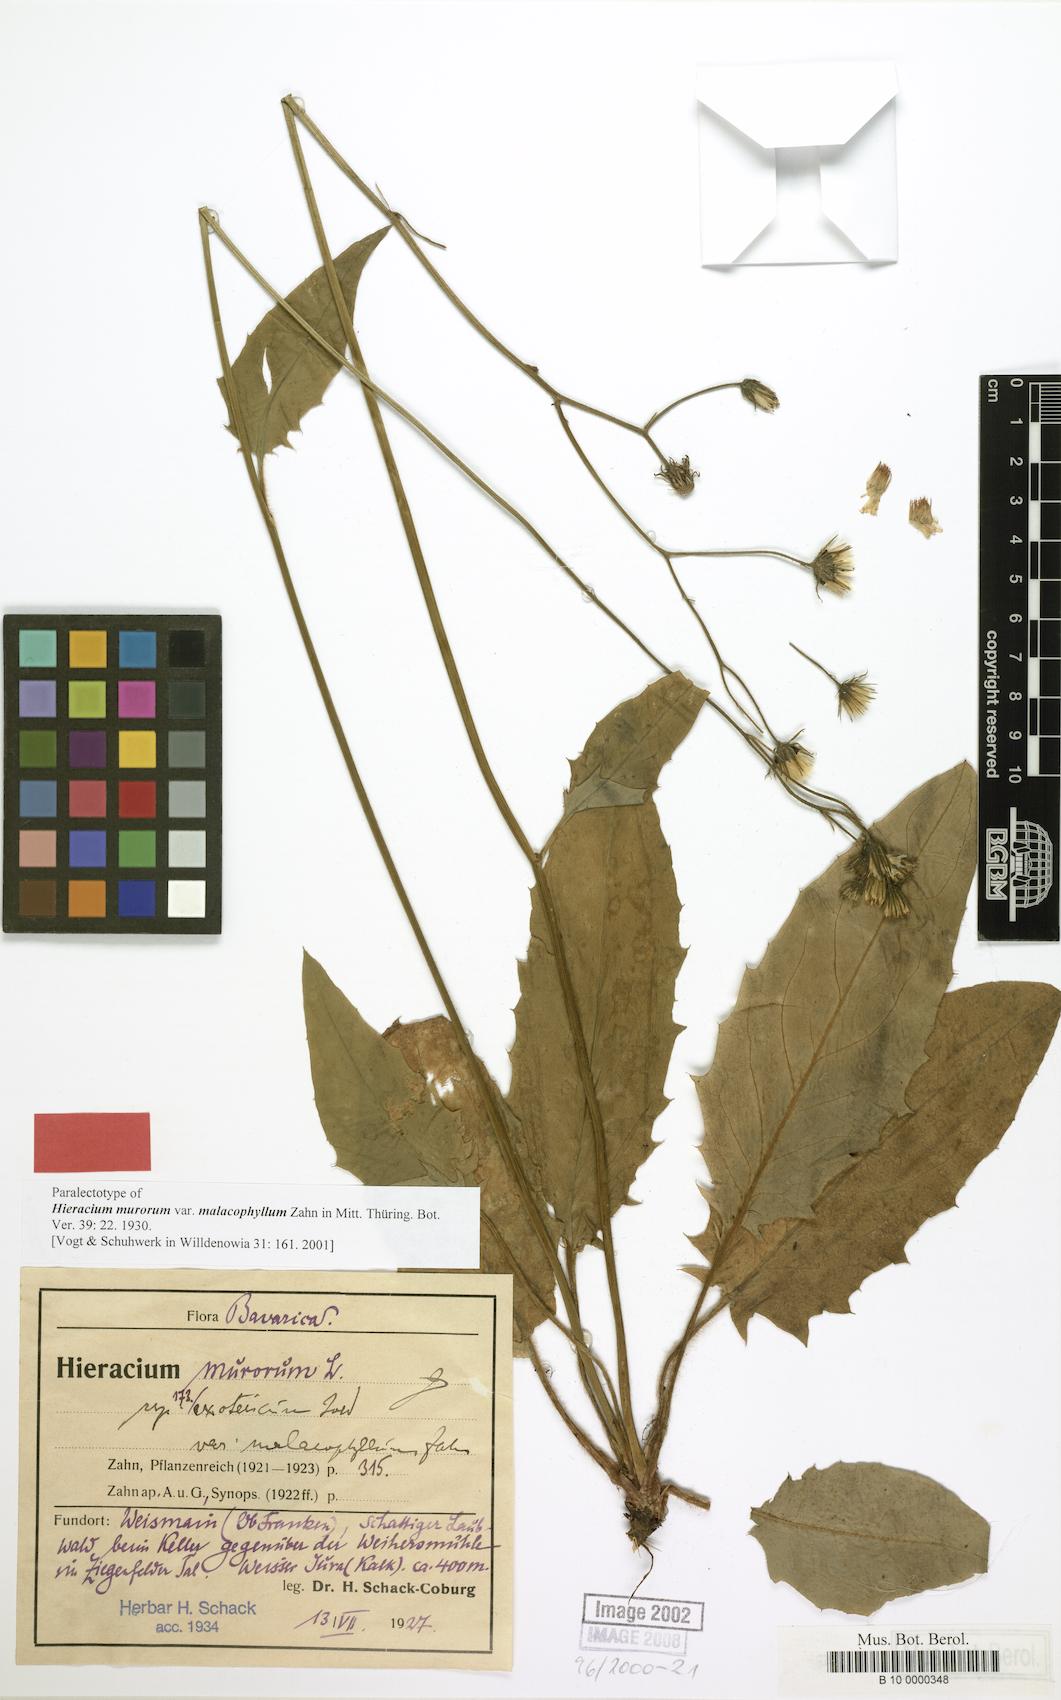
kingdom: Plantae
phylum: Tracheophyta
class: Magnoliopsida
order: Asterales
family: Asteraceae
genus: Hieracium
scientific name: Hieracium murorum
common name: Wall hawkweed
